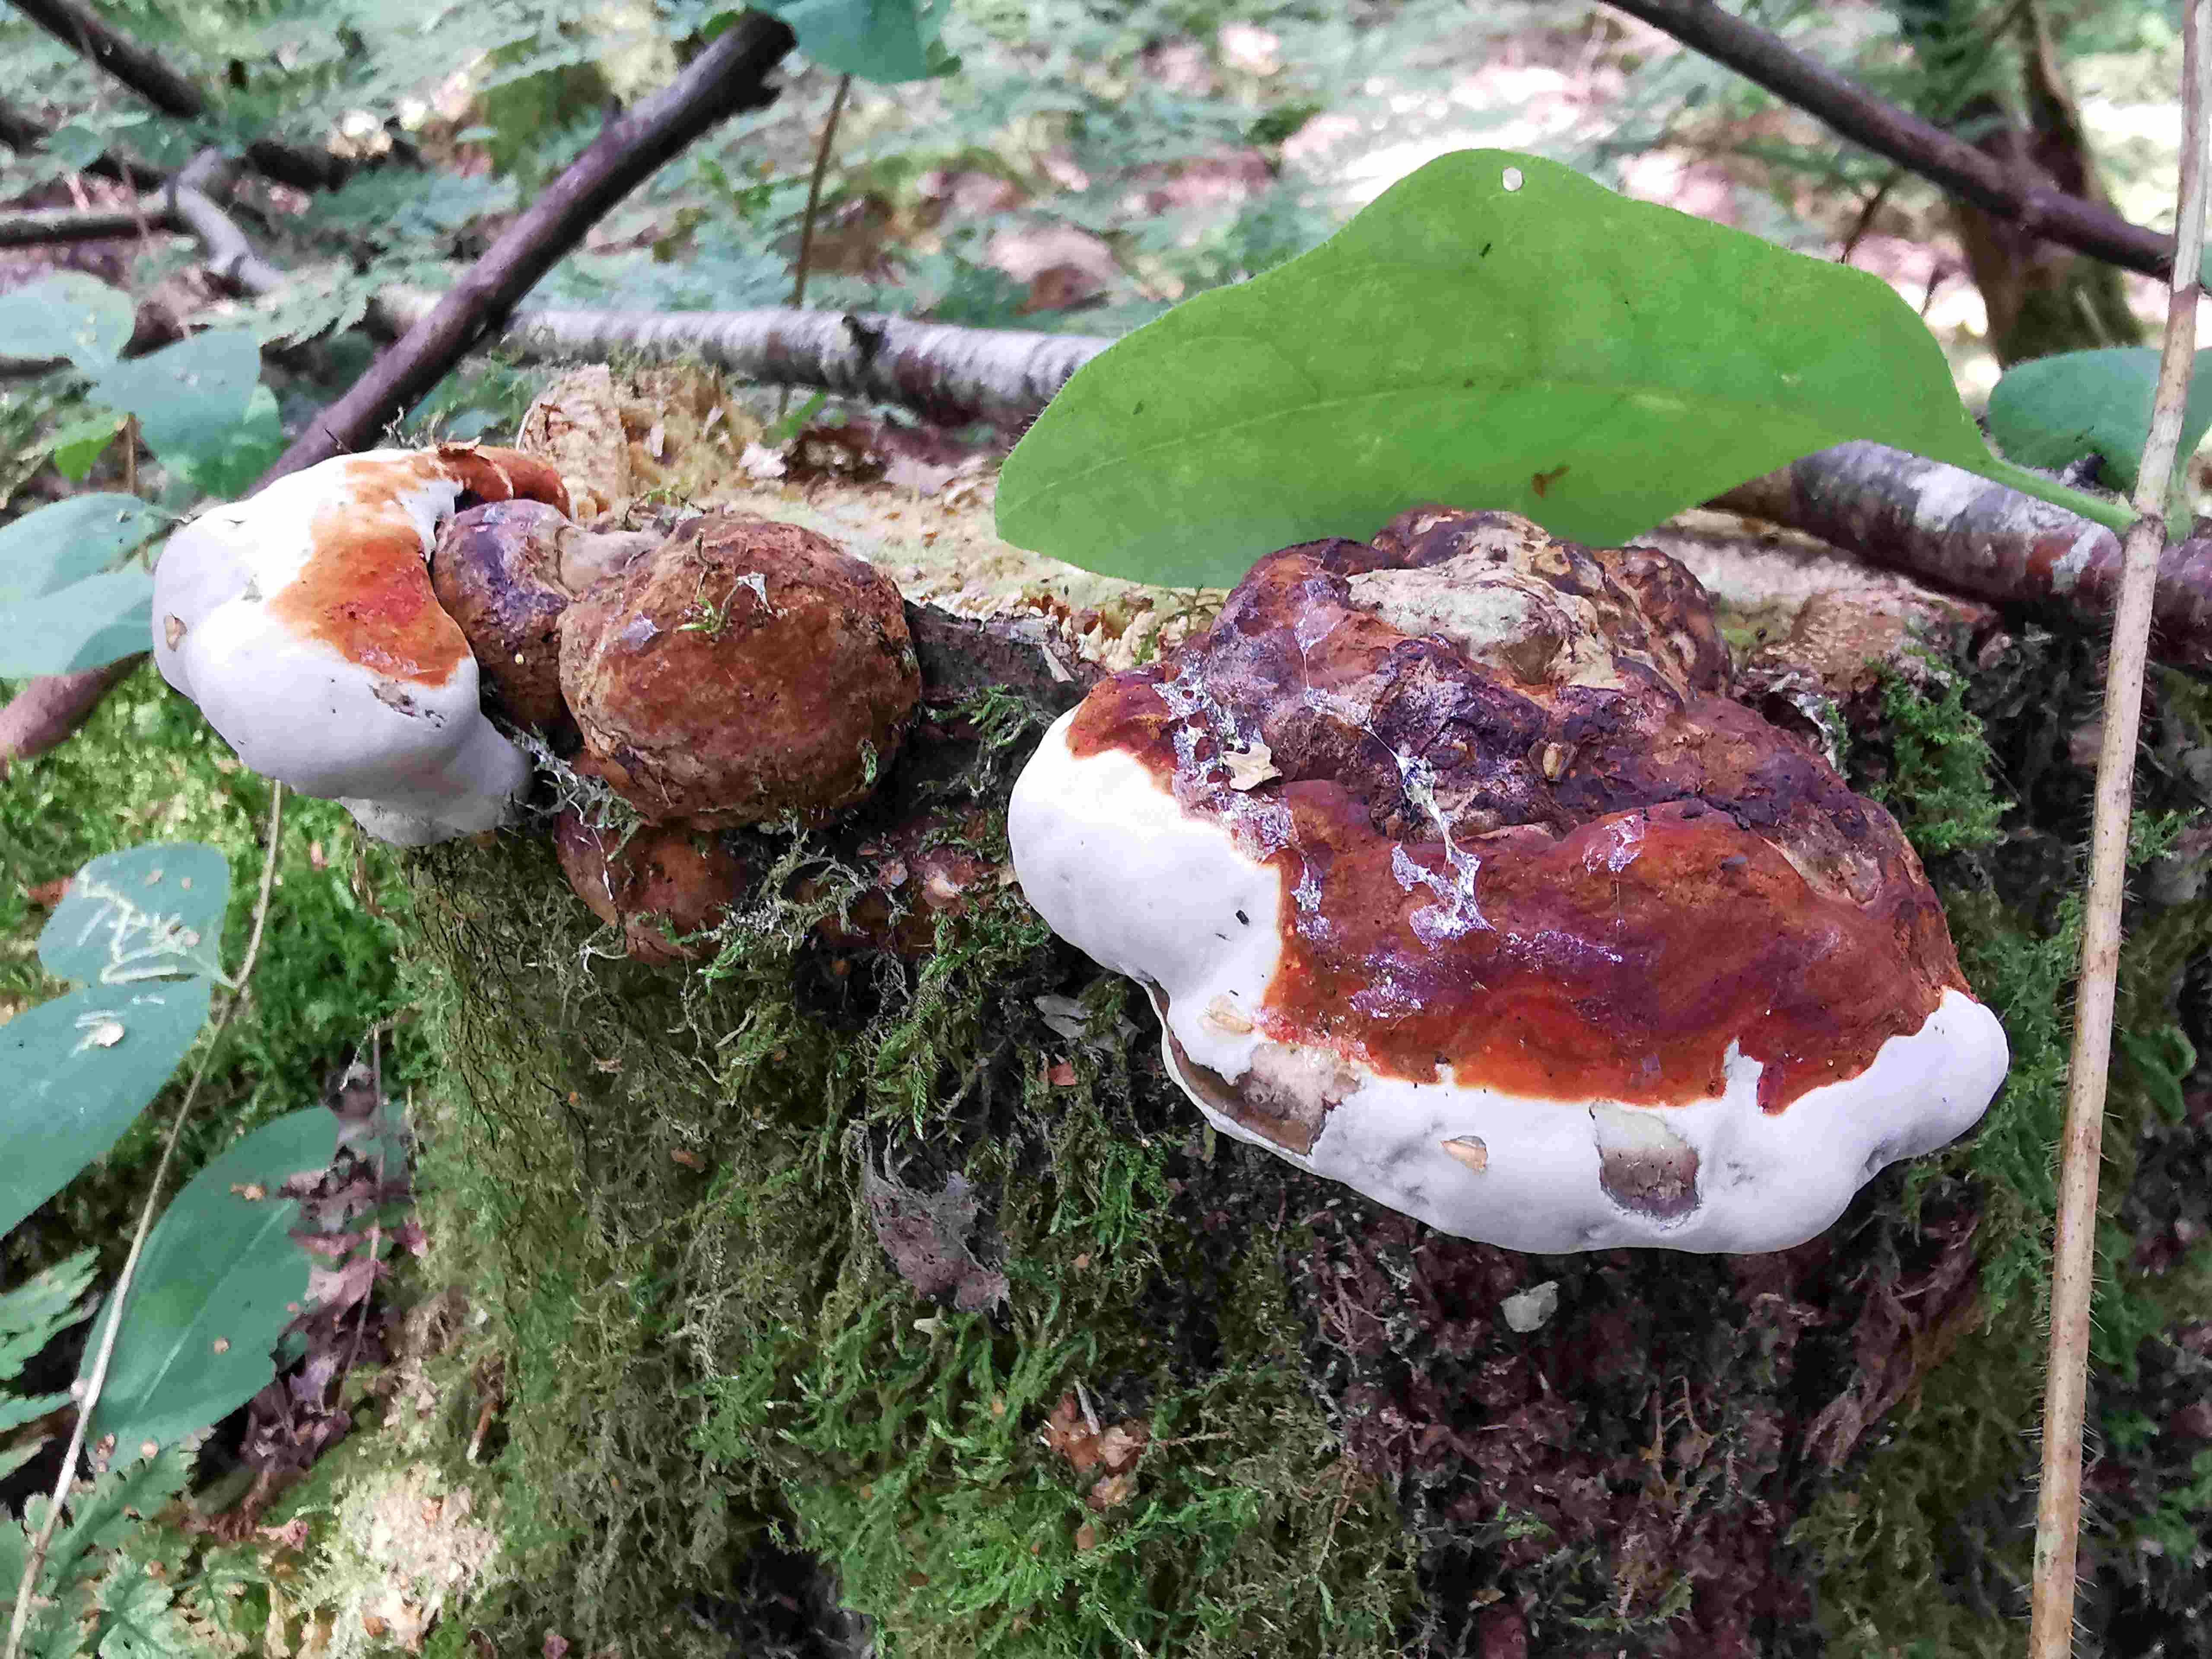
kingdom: Fungi
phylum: Basidiomycota
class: Agaricomycetes
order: Polyporales
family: Fomitopsidaceae
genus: Fomitopsis
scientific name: Fomitopsis pinicola
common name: randbæltet hovporesvamp
